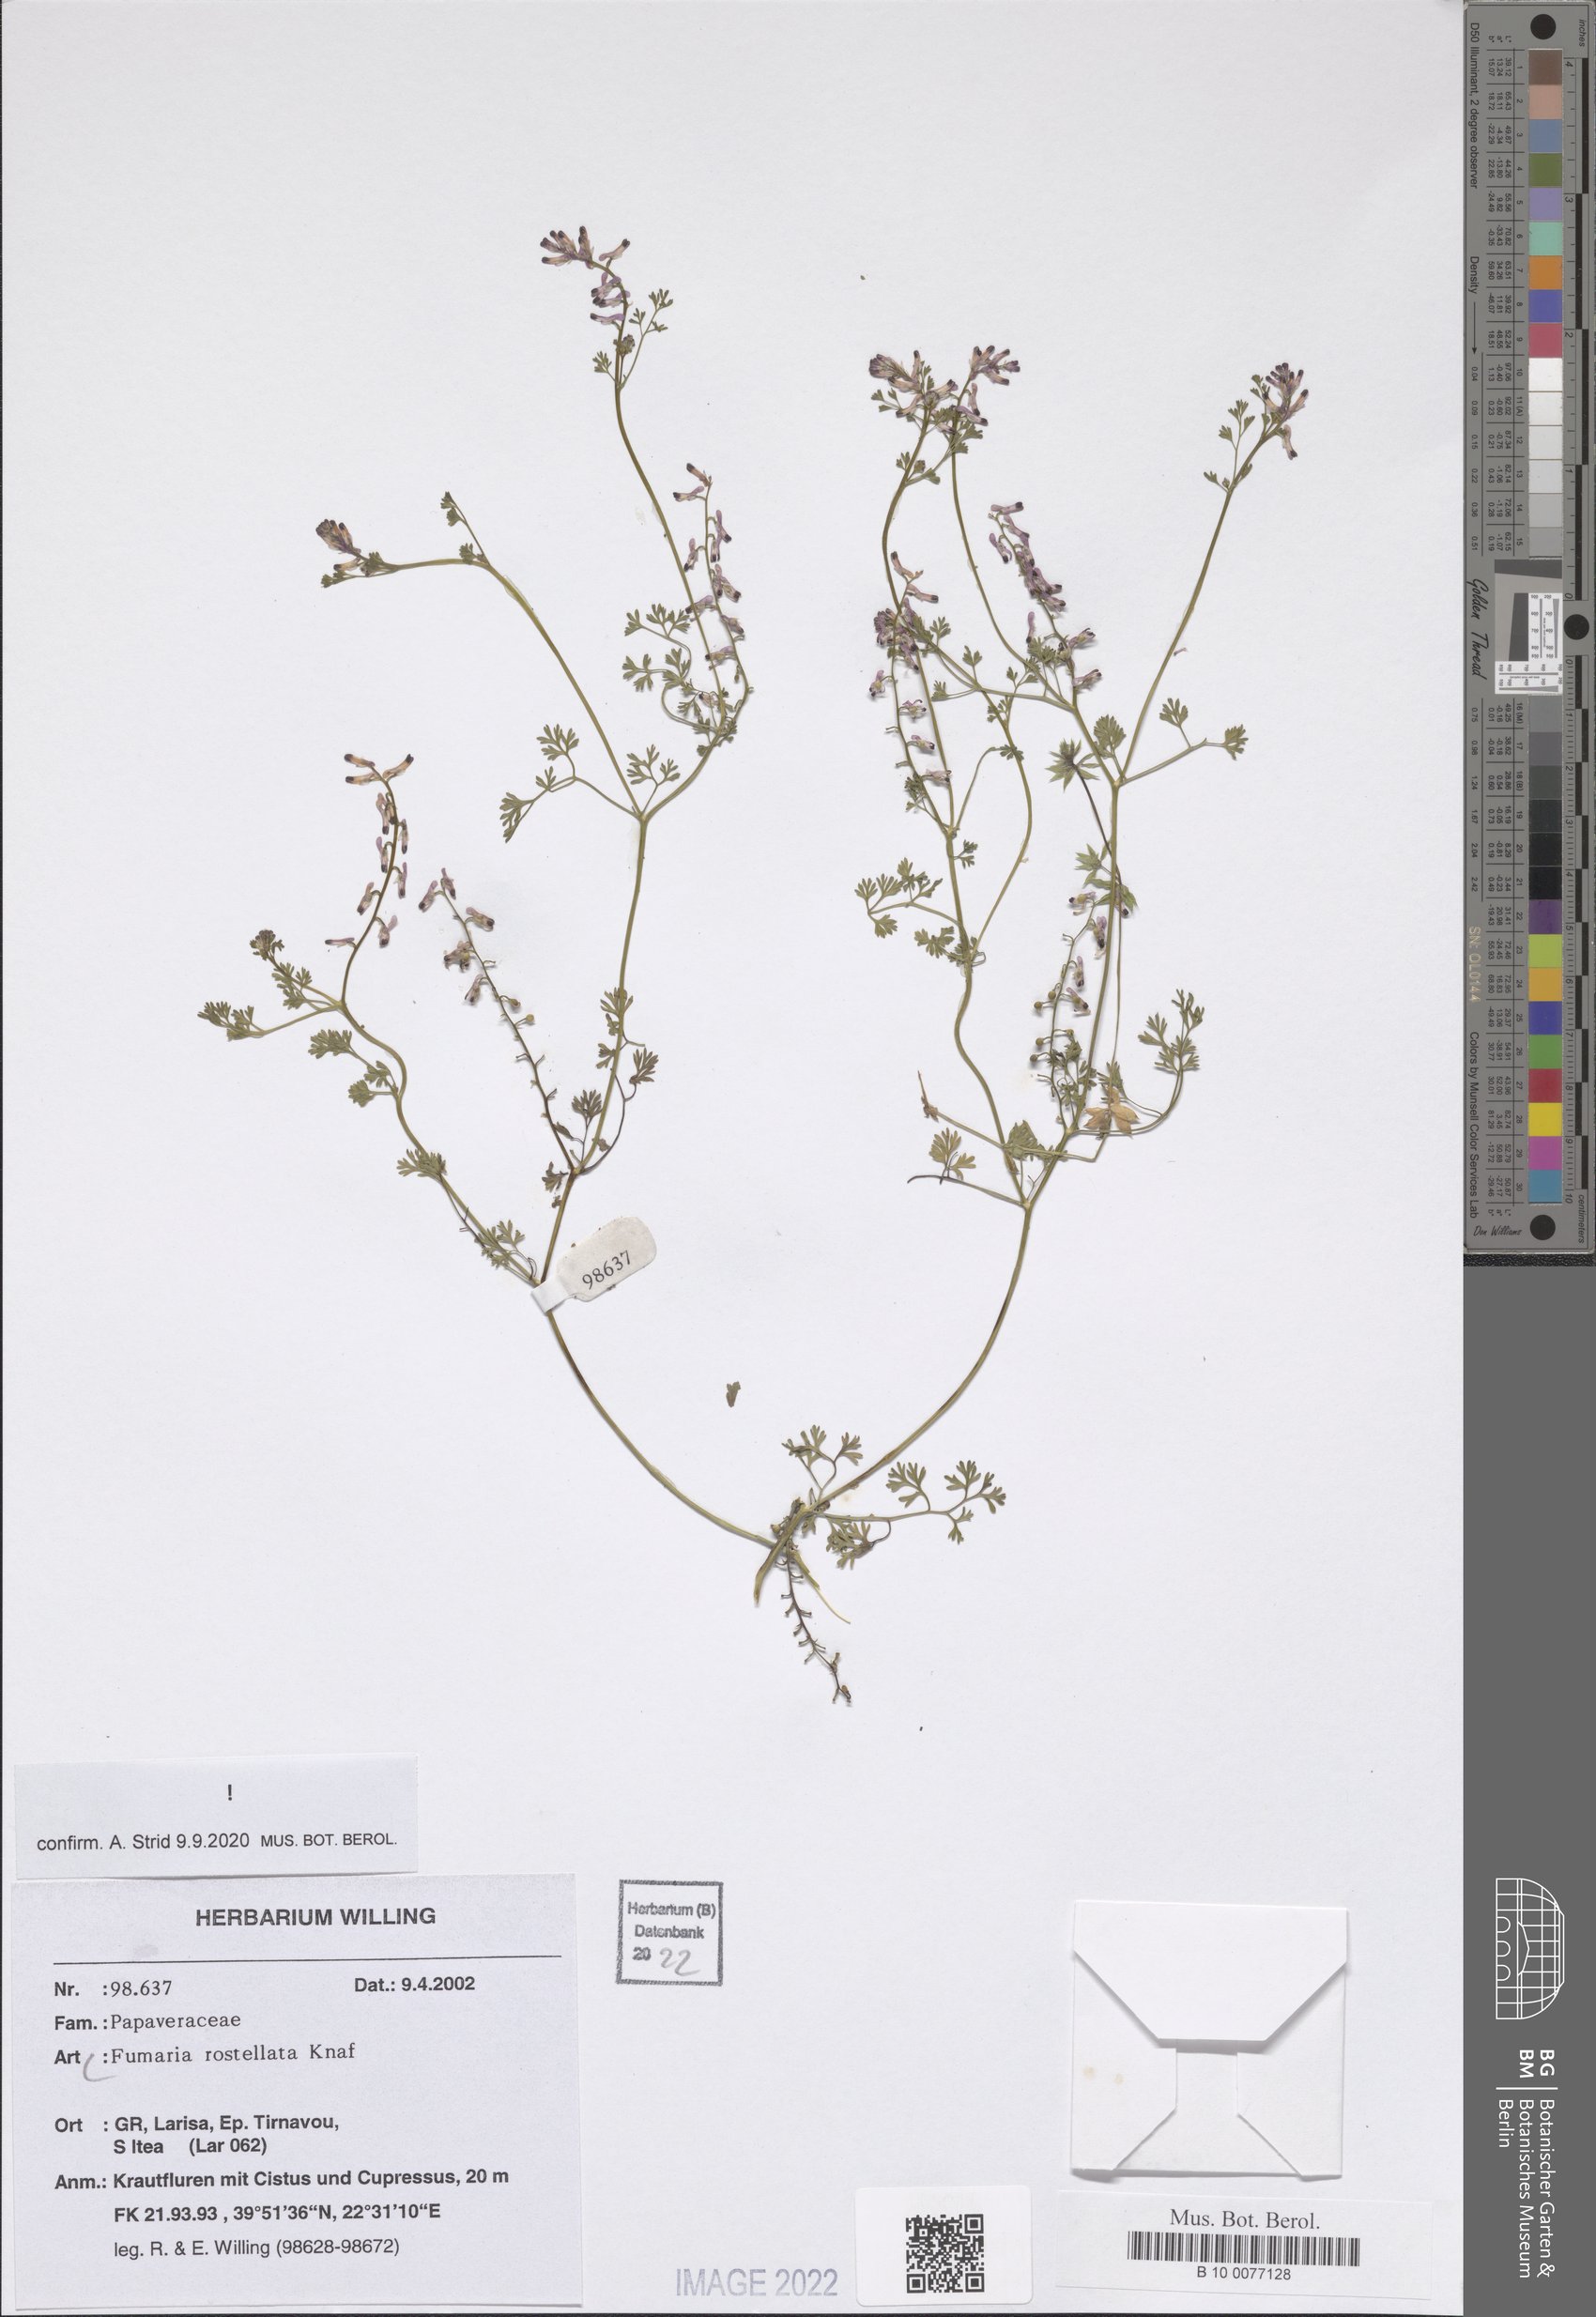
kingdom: Plantae
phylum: Tracheophyta
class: Magnoliopsida
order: Ranunculales
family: Papaveraceae
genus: Fumaria
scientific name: Fumaria rostellata
